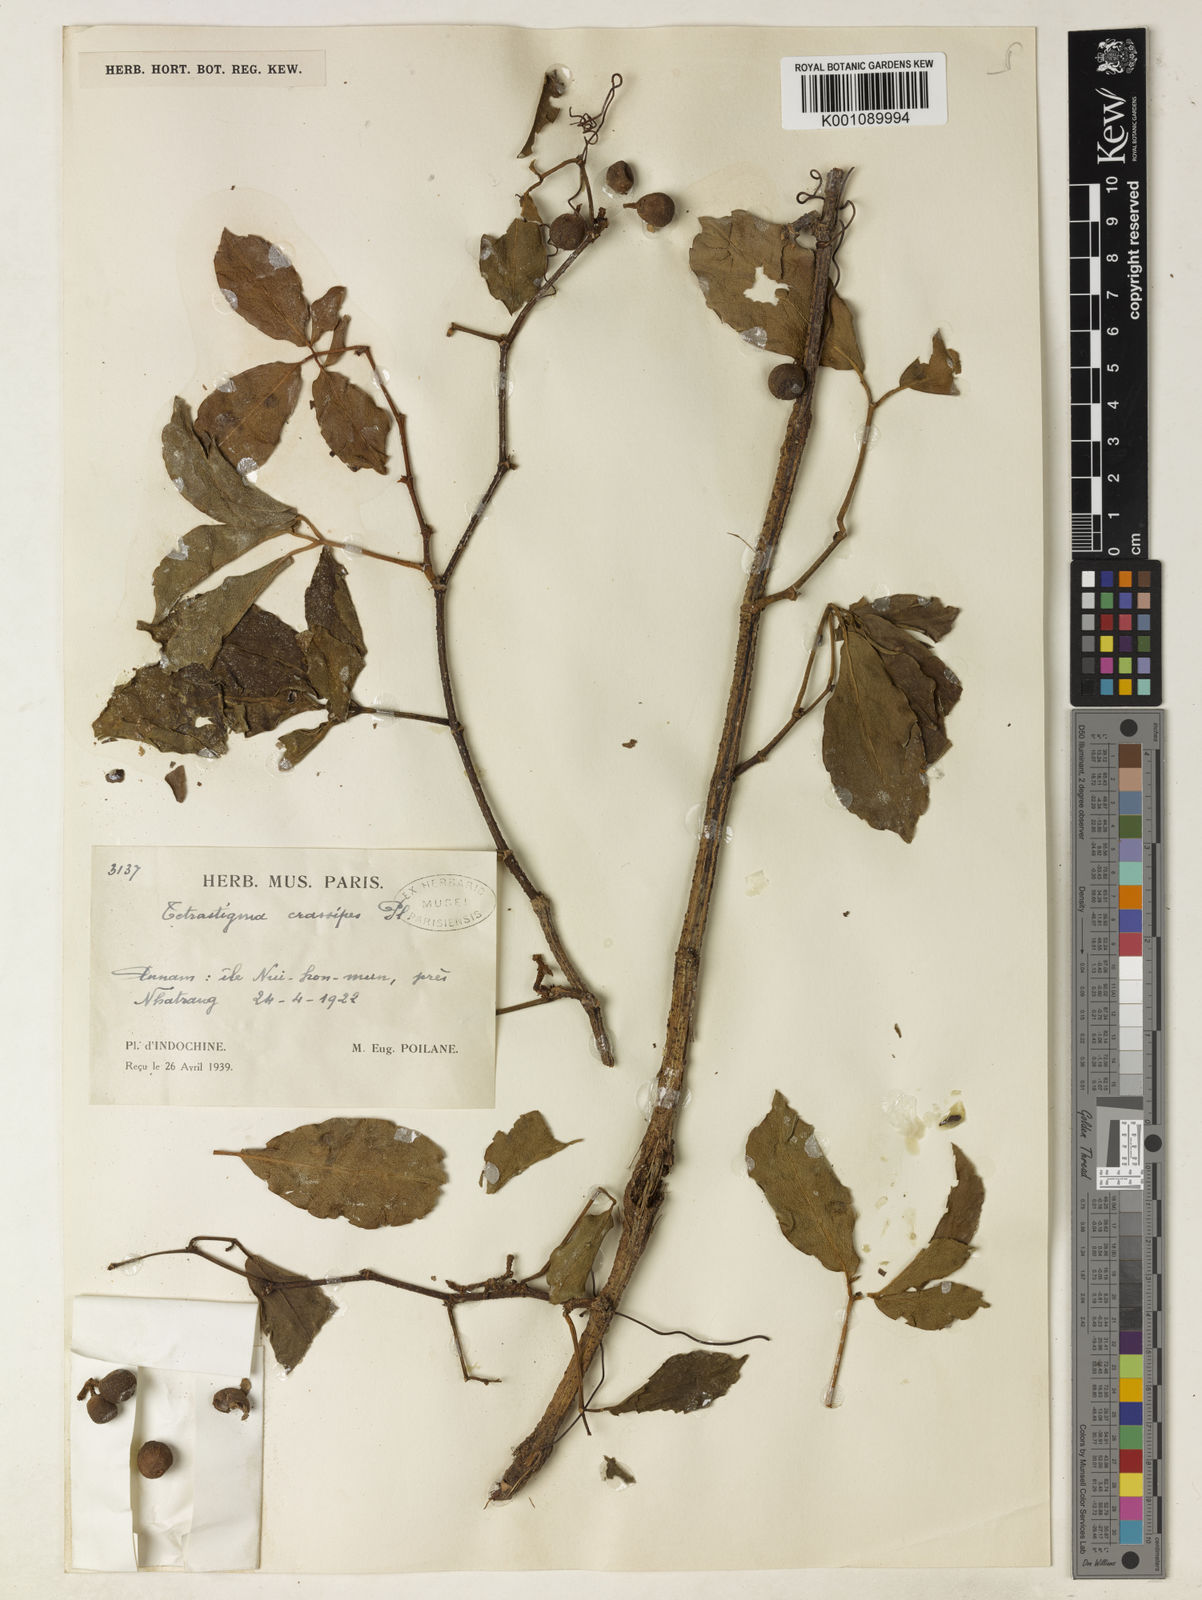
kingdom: Plantae
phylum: Tracheophyta
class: Magnoliopsida
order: Vitales
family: Vitaceae
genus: Tetrastigma
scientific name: Tetrastigma pachyphyllum
